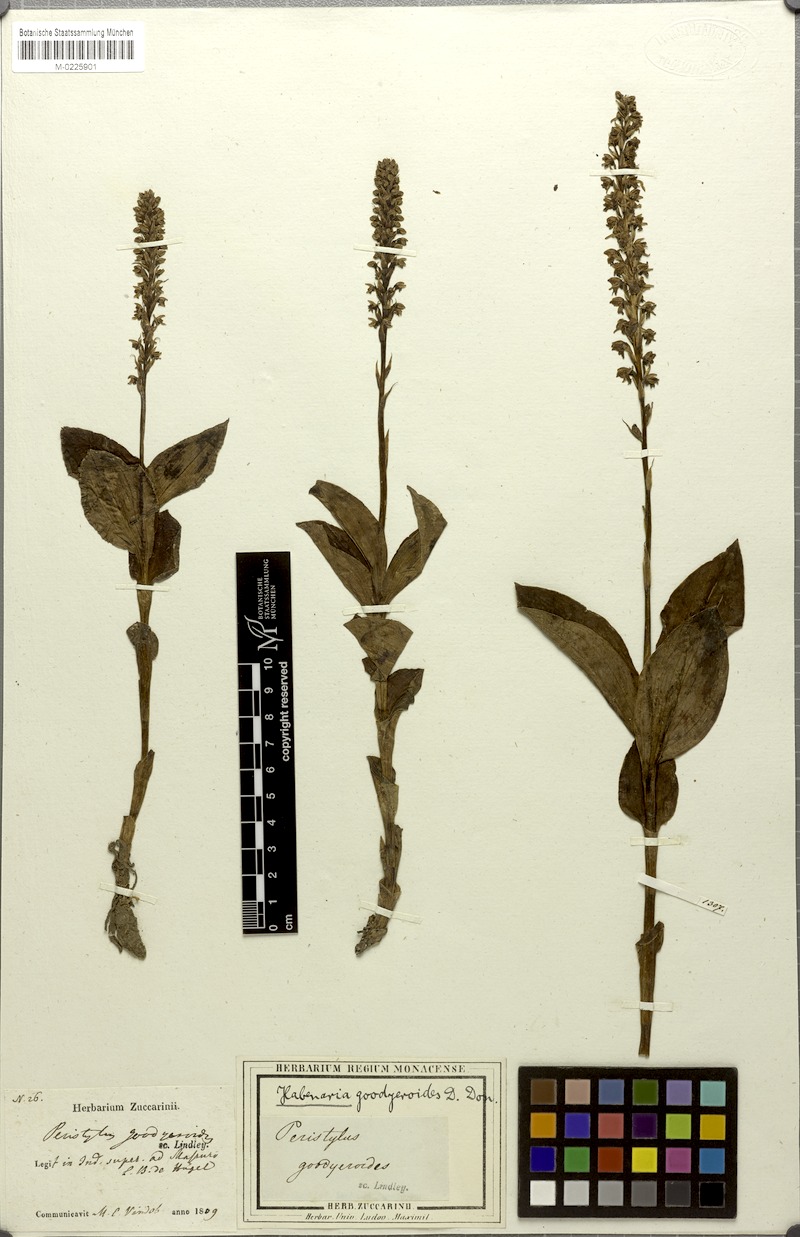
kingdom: Plantae
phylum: Tracheophyta
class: Liliopsida
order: Asparagales
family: Orchidaceae
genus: Peristylus
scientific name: Peristylus goodyeroides
